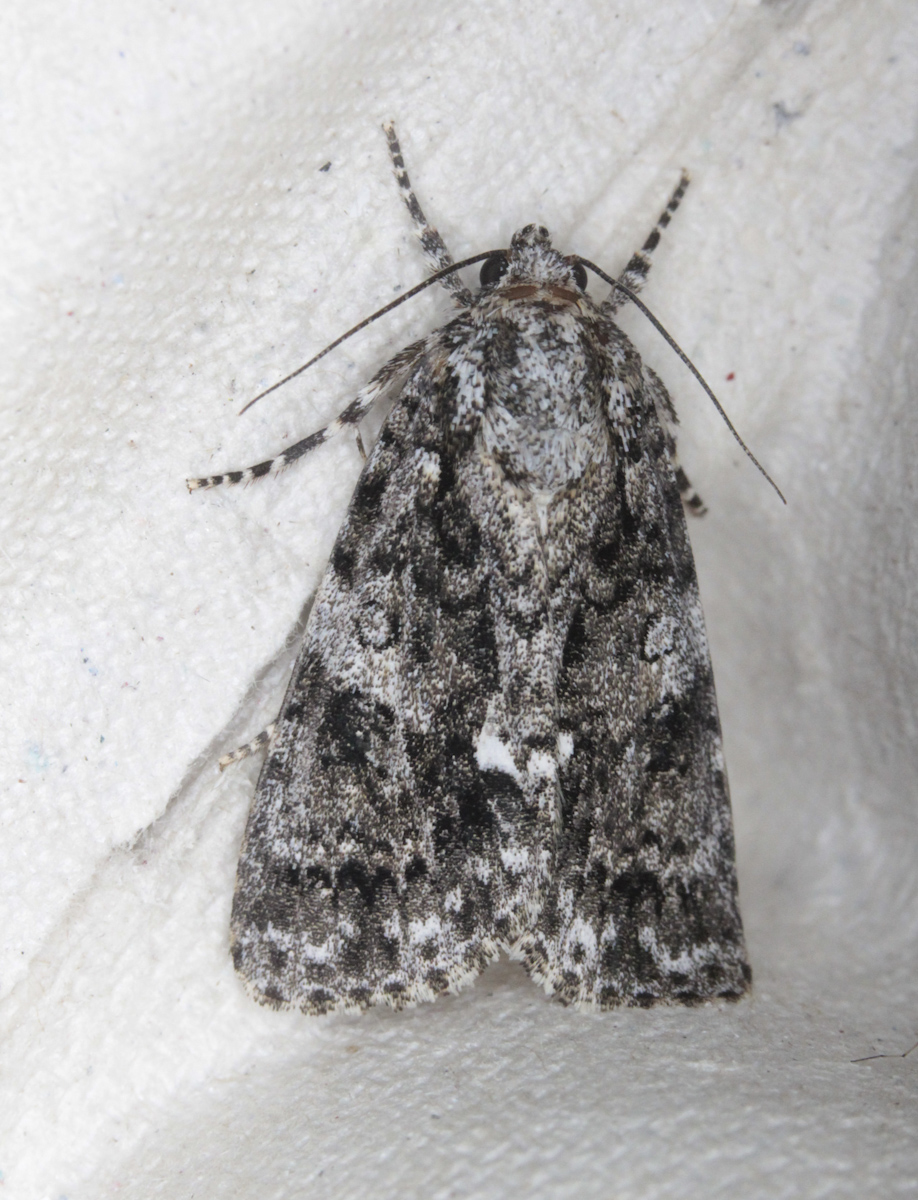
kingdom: Animalia
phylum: Arthropoda
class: Insecta
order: Lepidoptera
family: Noctuidae
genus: Acronicta
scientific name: Acronicta rumicis
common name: Knot grass
